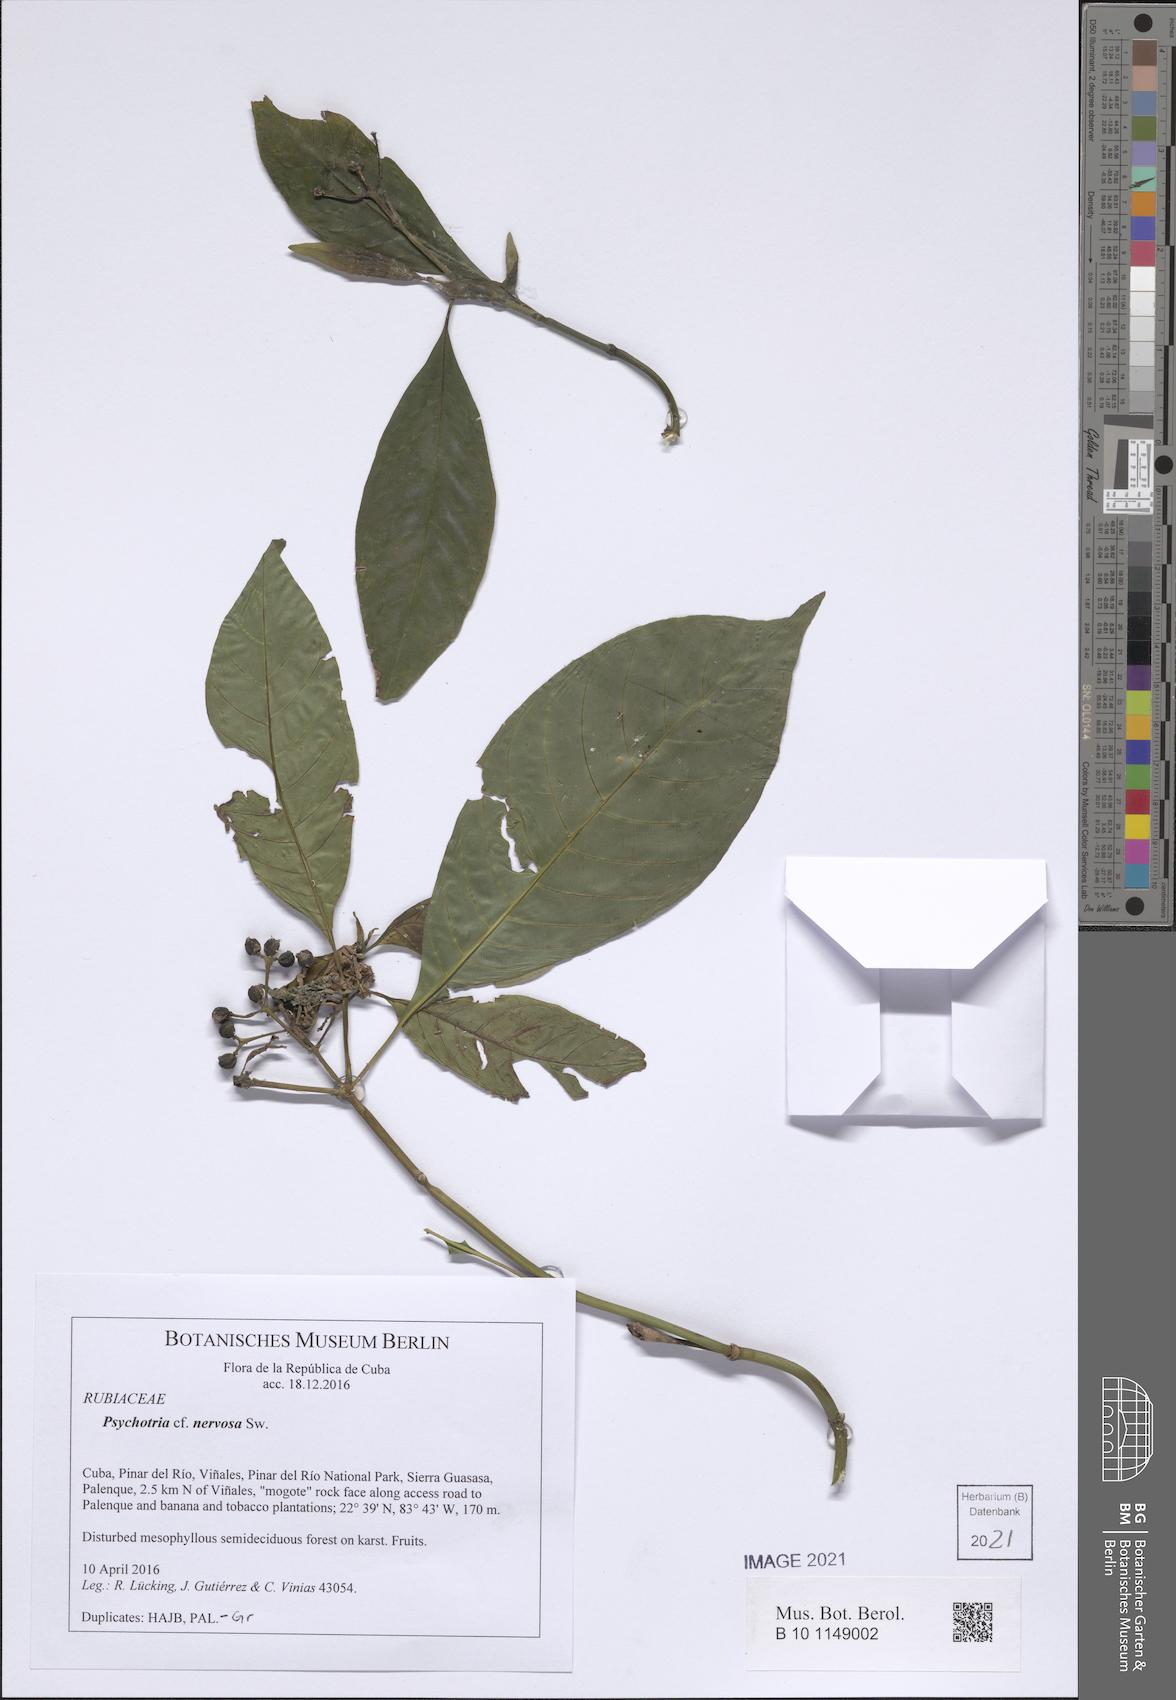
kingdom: Plantae
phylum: Tracheophyta
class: Magnoliopsida
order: Gentianales
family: Rubiaceae
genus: Psychotria
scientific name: Psychotria nervosa
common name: Bastard cankerberry
